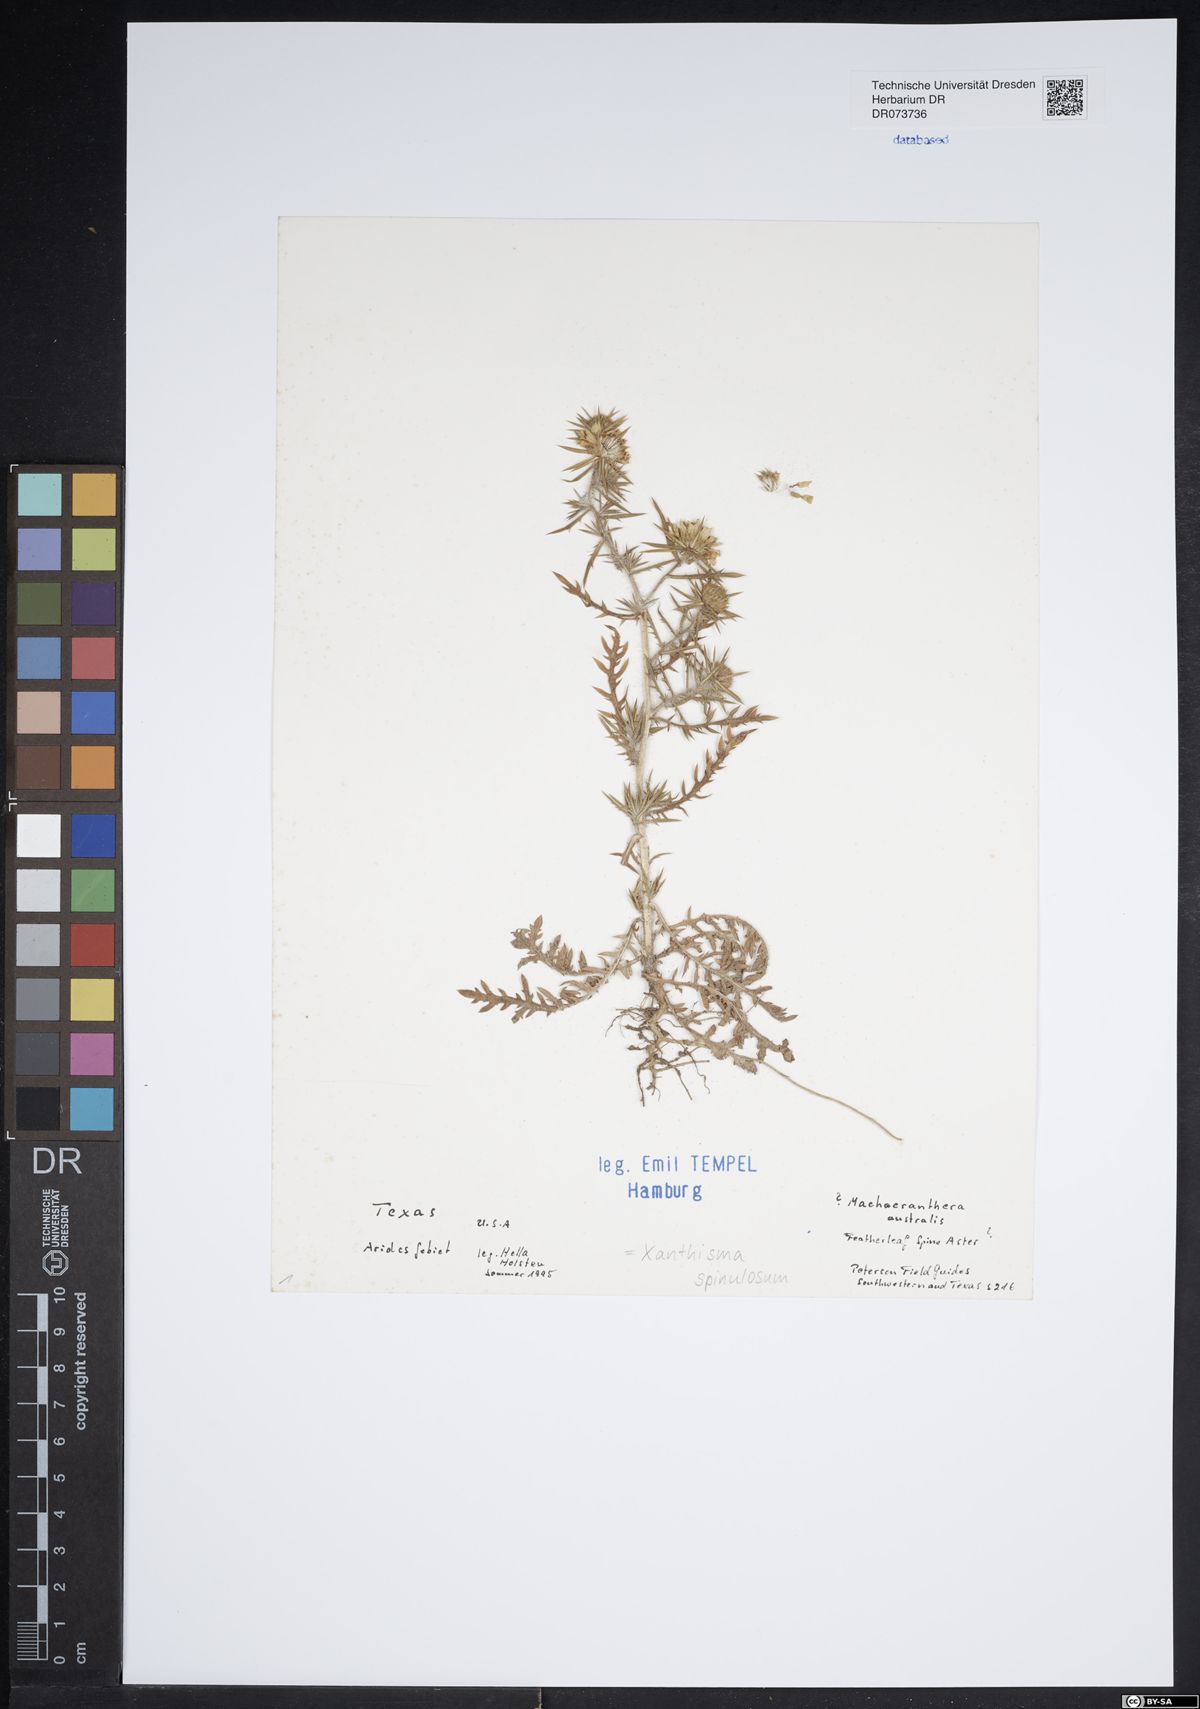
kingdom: Plantae
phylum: Tracheophyta
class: Magnoliopsida
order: Asterales
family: Asteraceae
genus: Xanthisma
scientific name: Xanthisma spinulosum
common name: Spiny goldenweed
